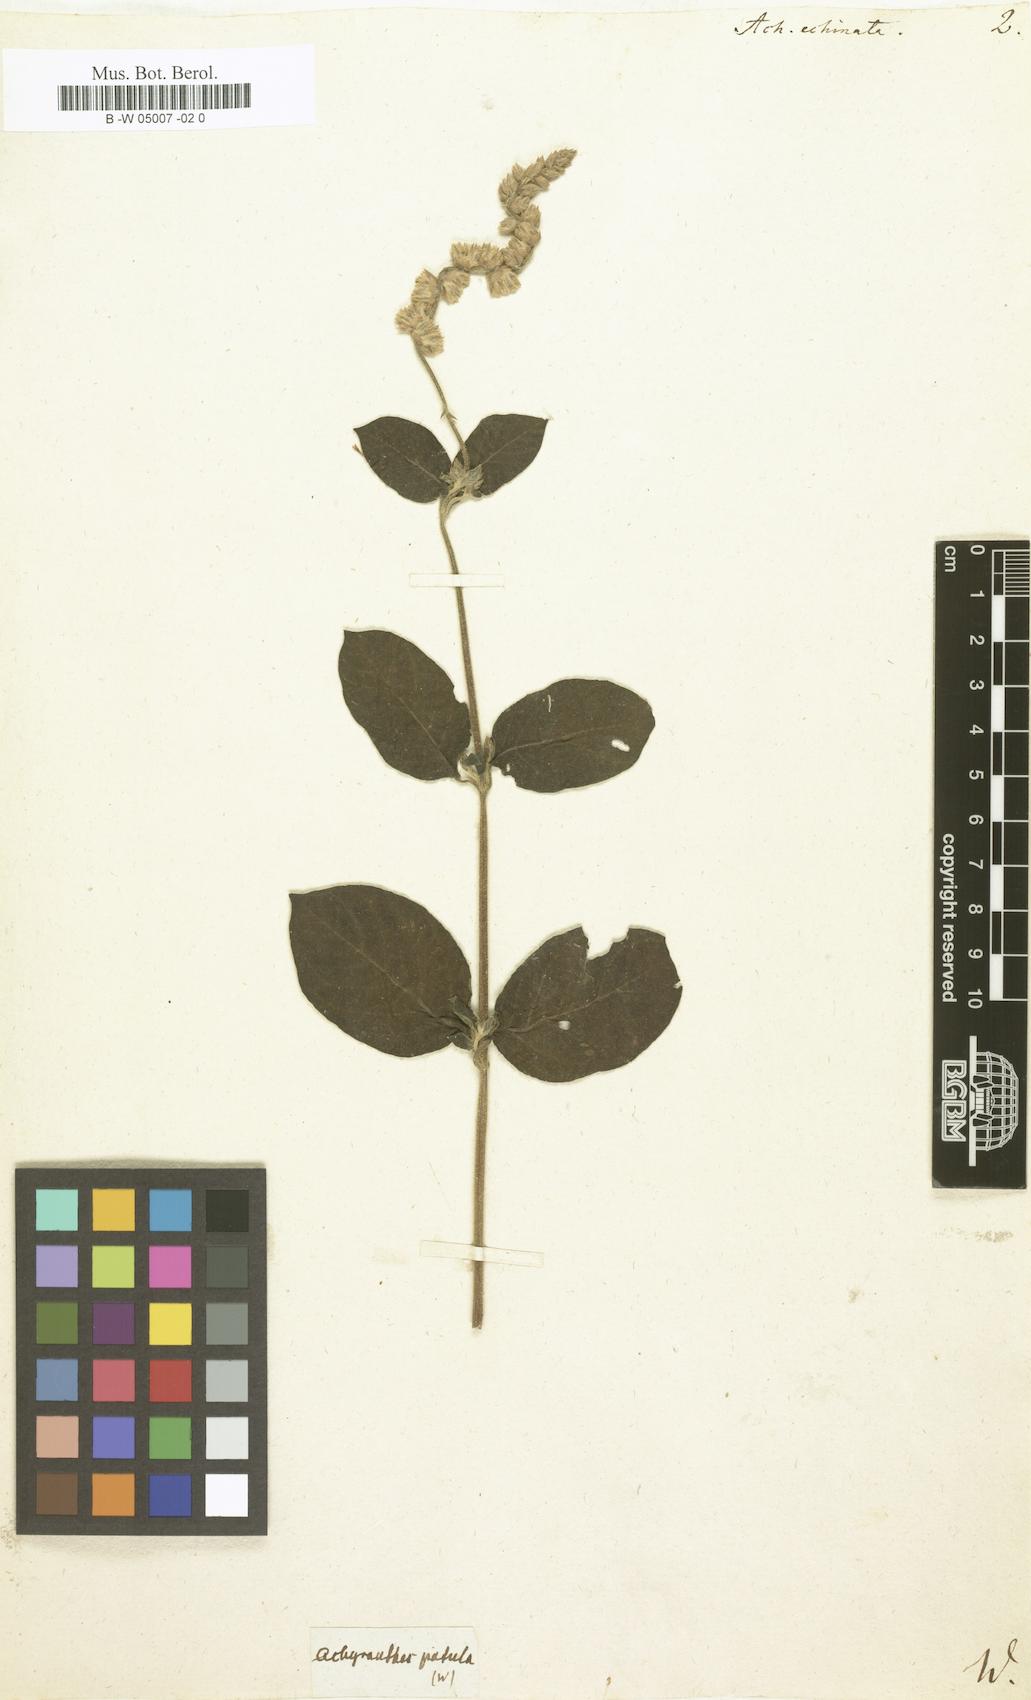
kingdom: Plantae
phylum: Tracheophyta
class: Magnoliopsida
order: Caryophyllales
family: Amaranthaceae
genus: Pupalia
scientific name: Pupalia lappacea
